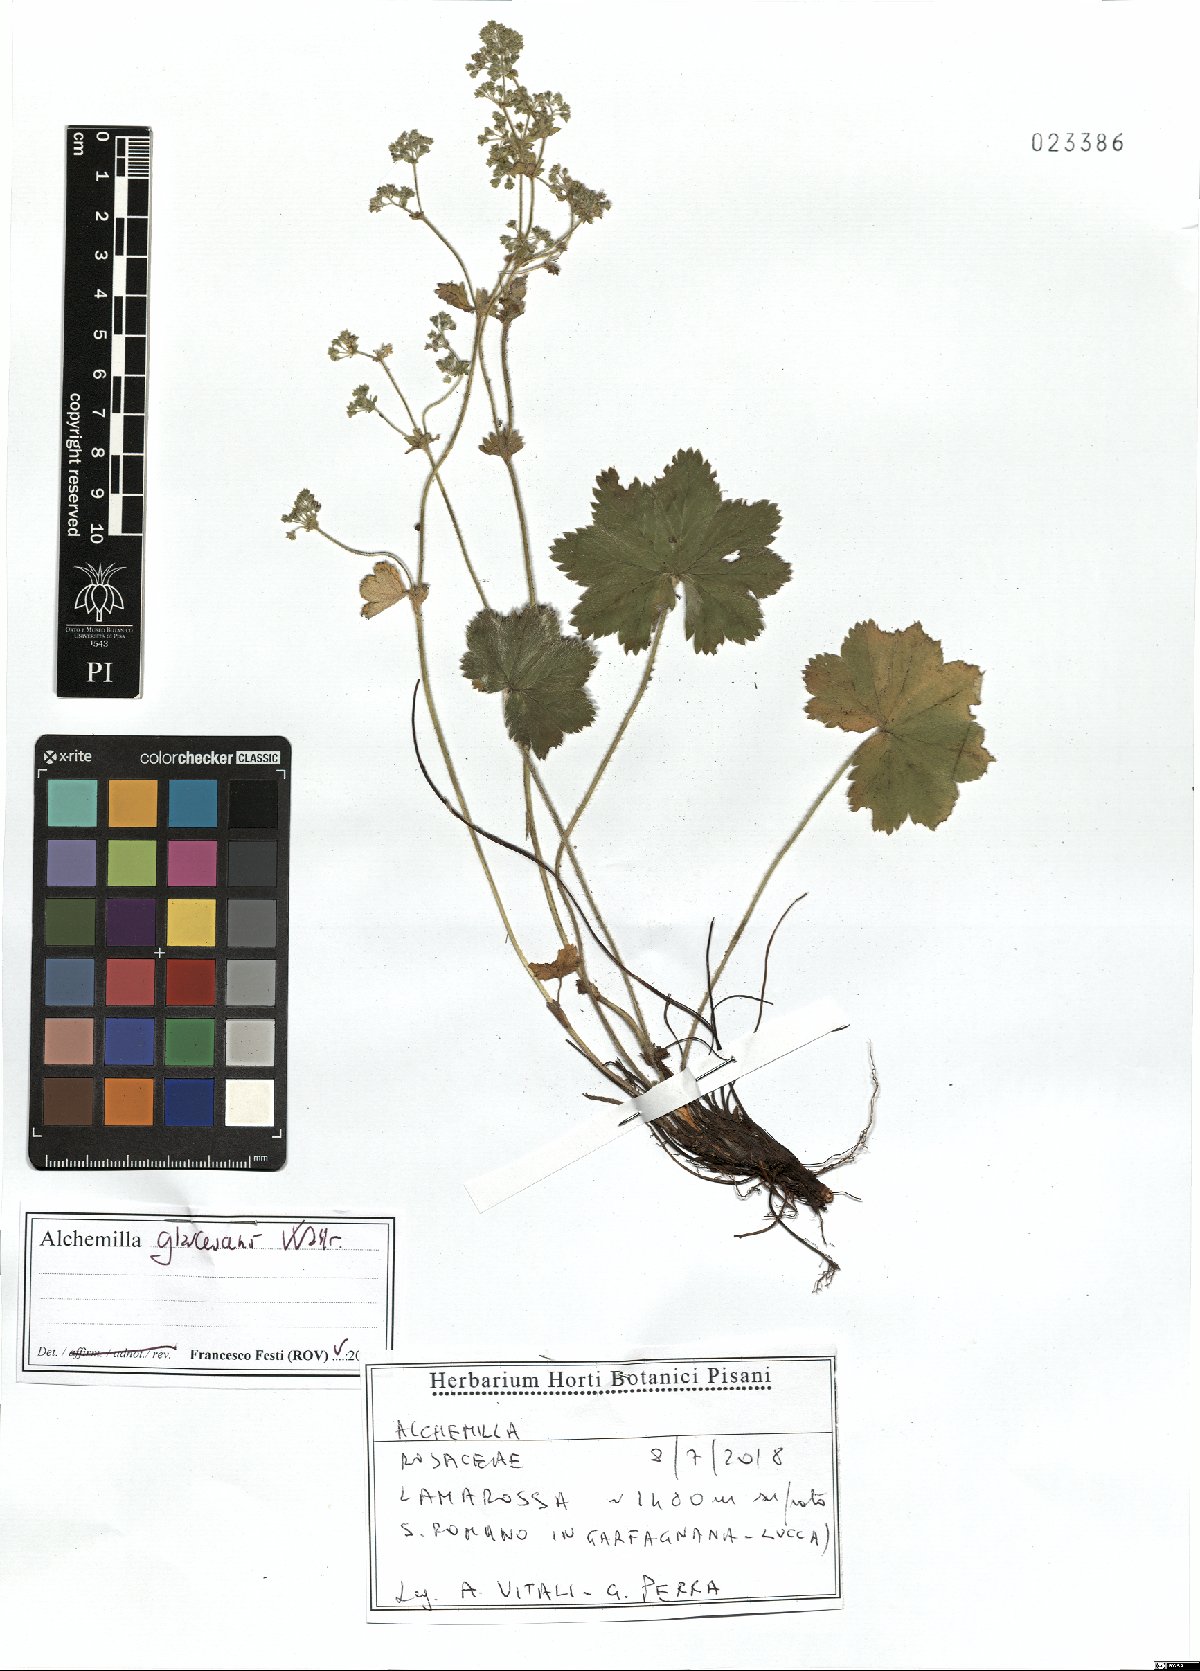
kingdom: Plantae
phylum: Tracheophyta
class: Magnoliopsida
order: Rosales
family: Rosaceae
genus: Alchemilla
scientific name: Alchemilla glaucescens
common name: Silky lady's mantle
